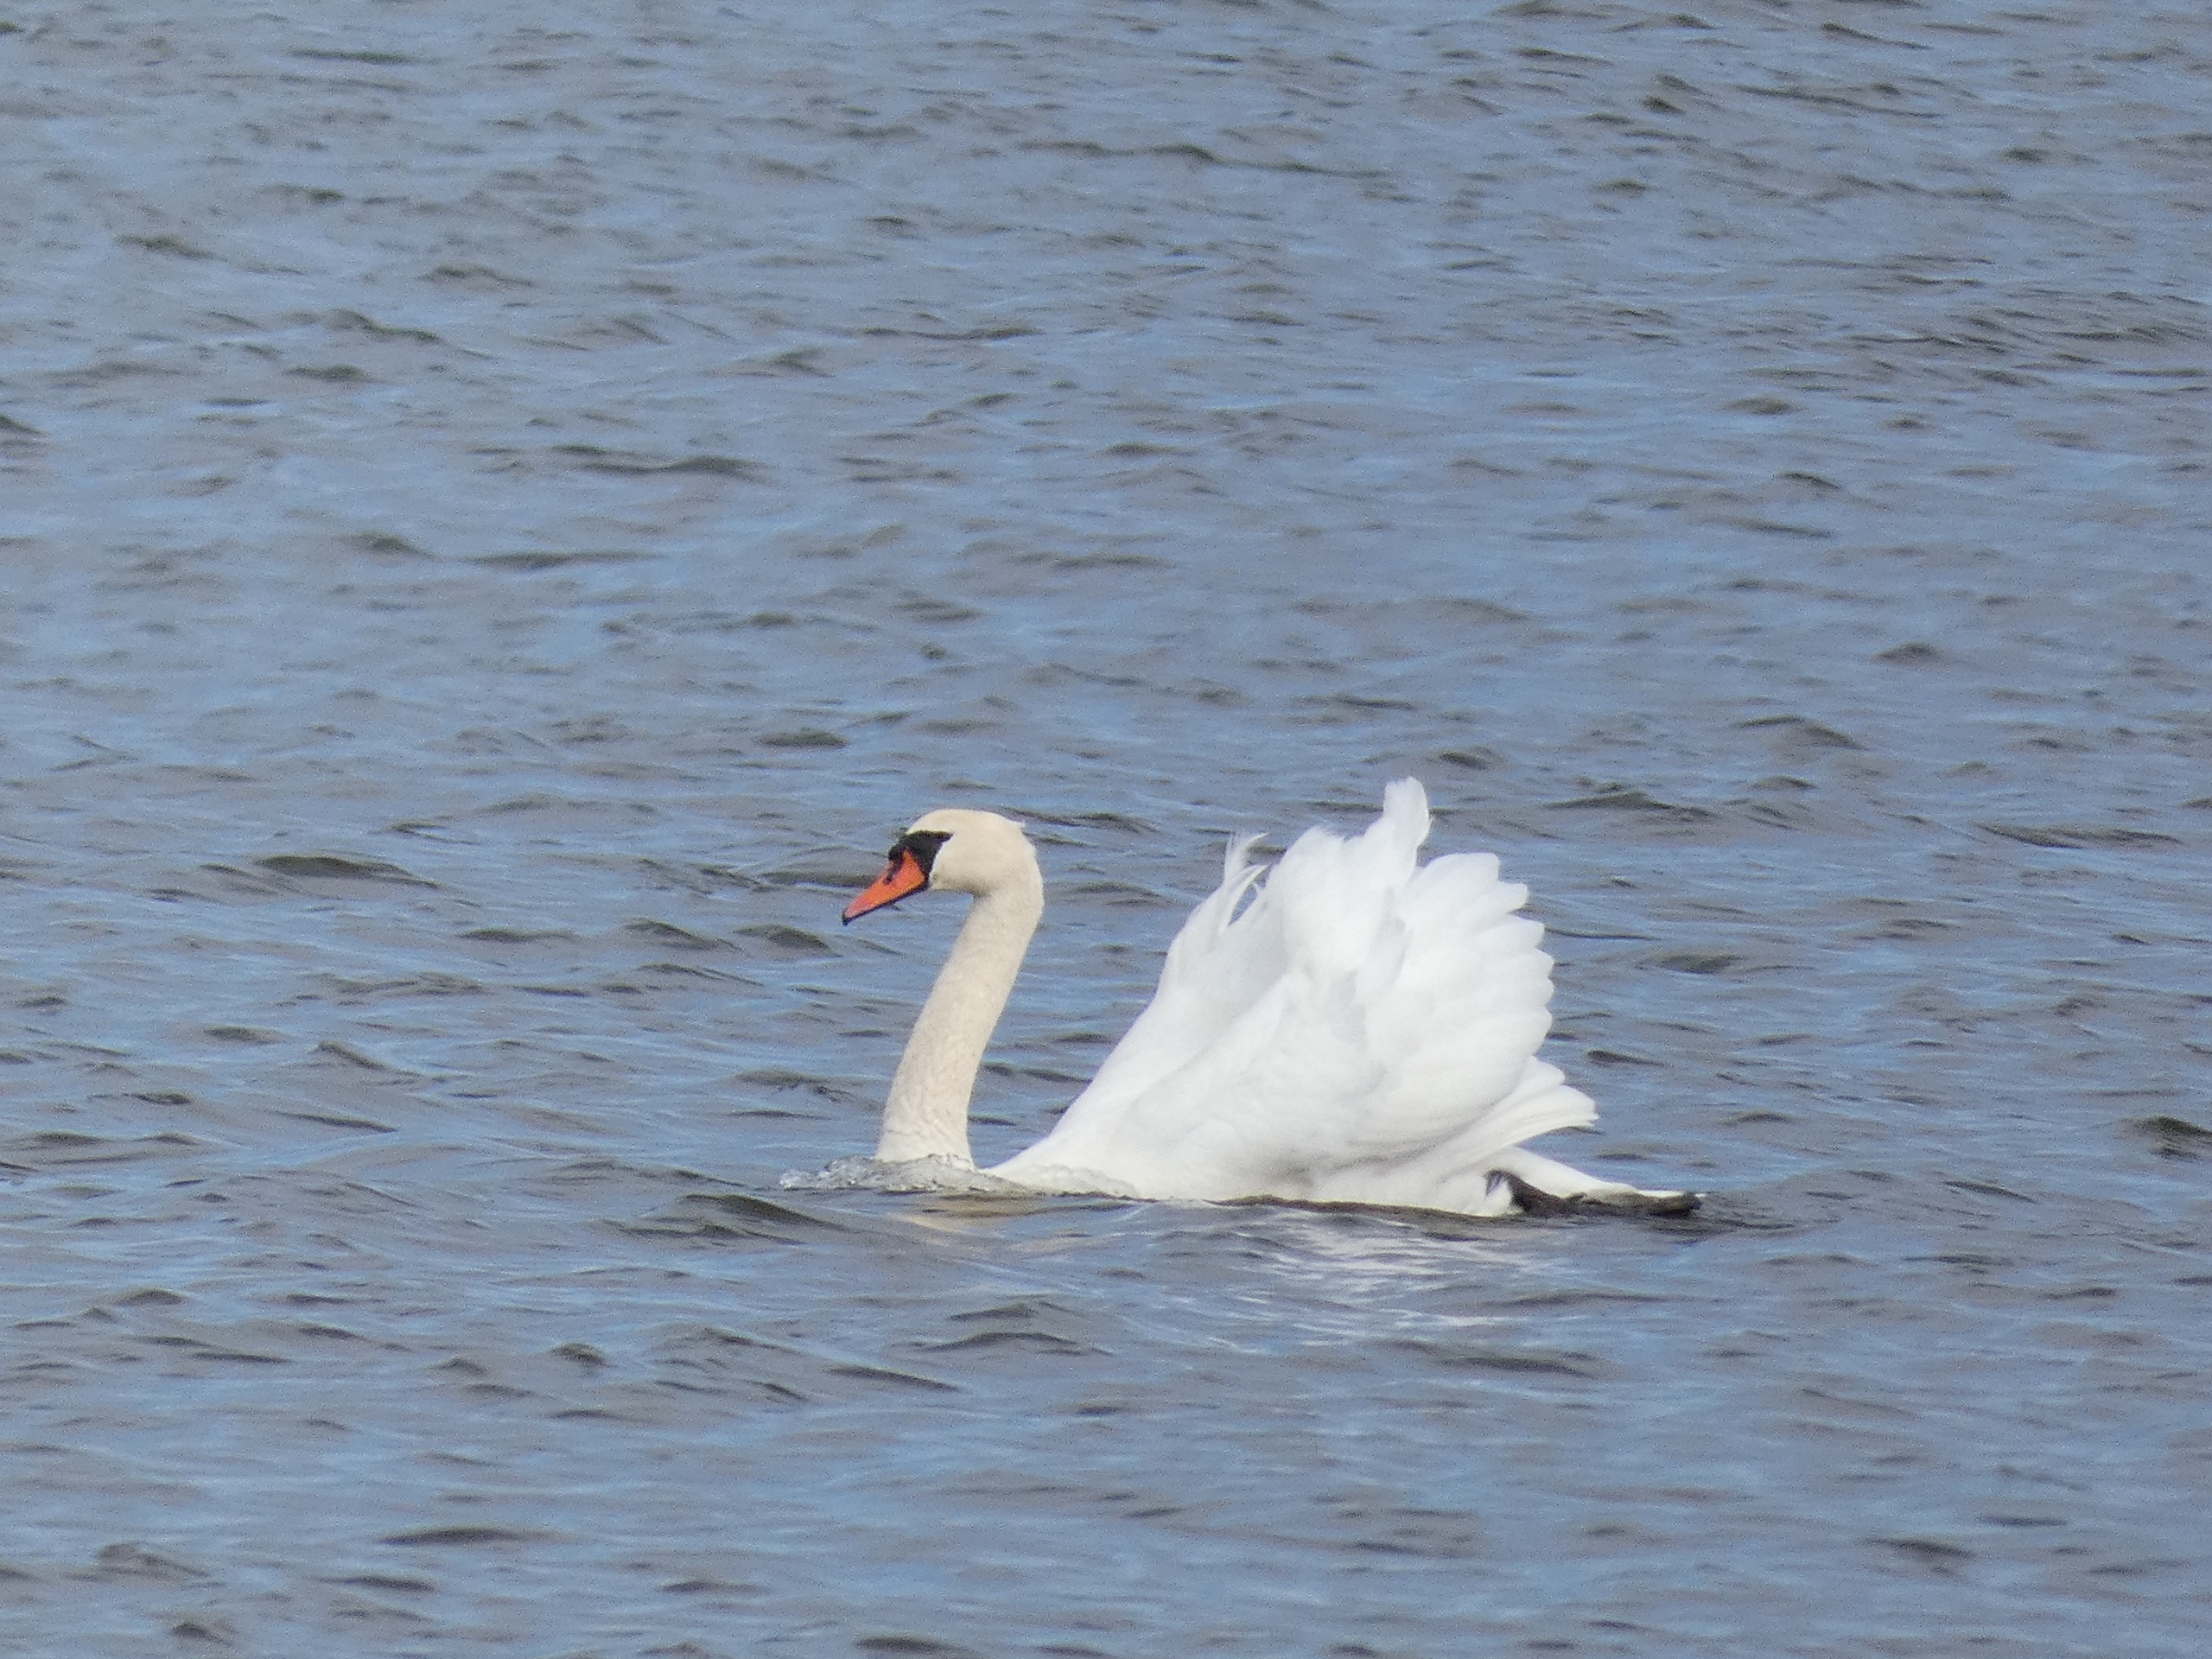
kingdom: Animalia
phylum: Chordata
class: Aves
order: Anseriformes
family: Anatidae
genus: Cygnus
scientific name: Cygnus olor
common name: Knopsvane
